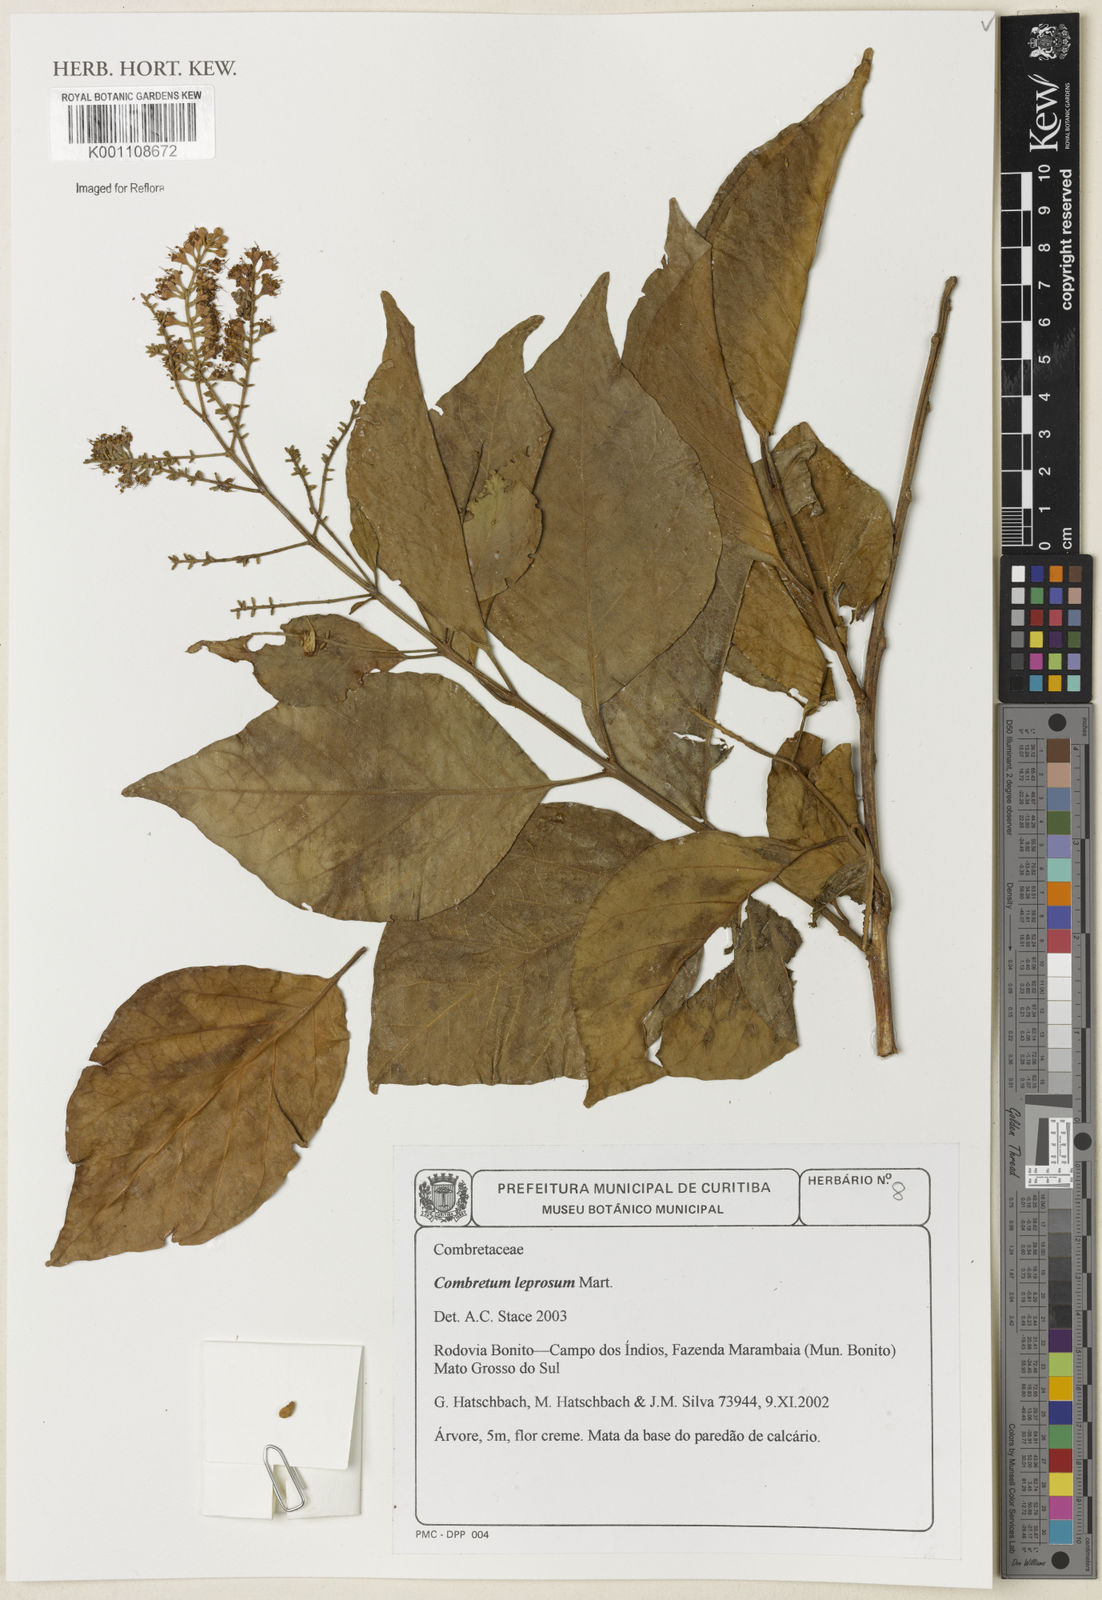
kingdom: Plantae
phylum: Tracheophyta
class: Magnoliopsida
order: Myrtales
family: Combretaceae
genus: Combretum
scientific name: Combretum hilarianum
